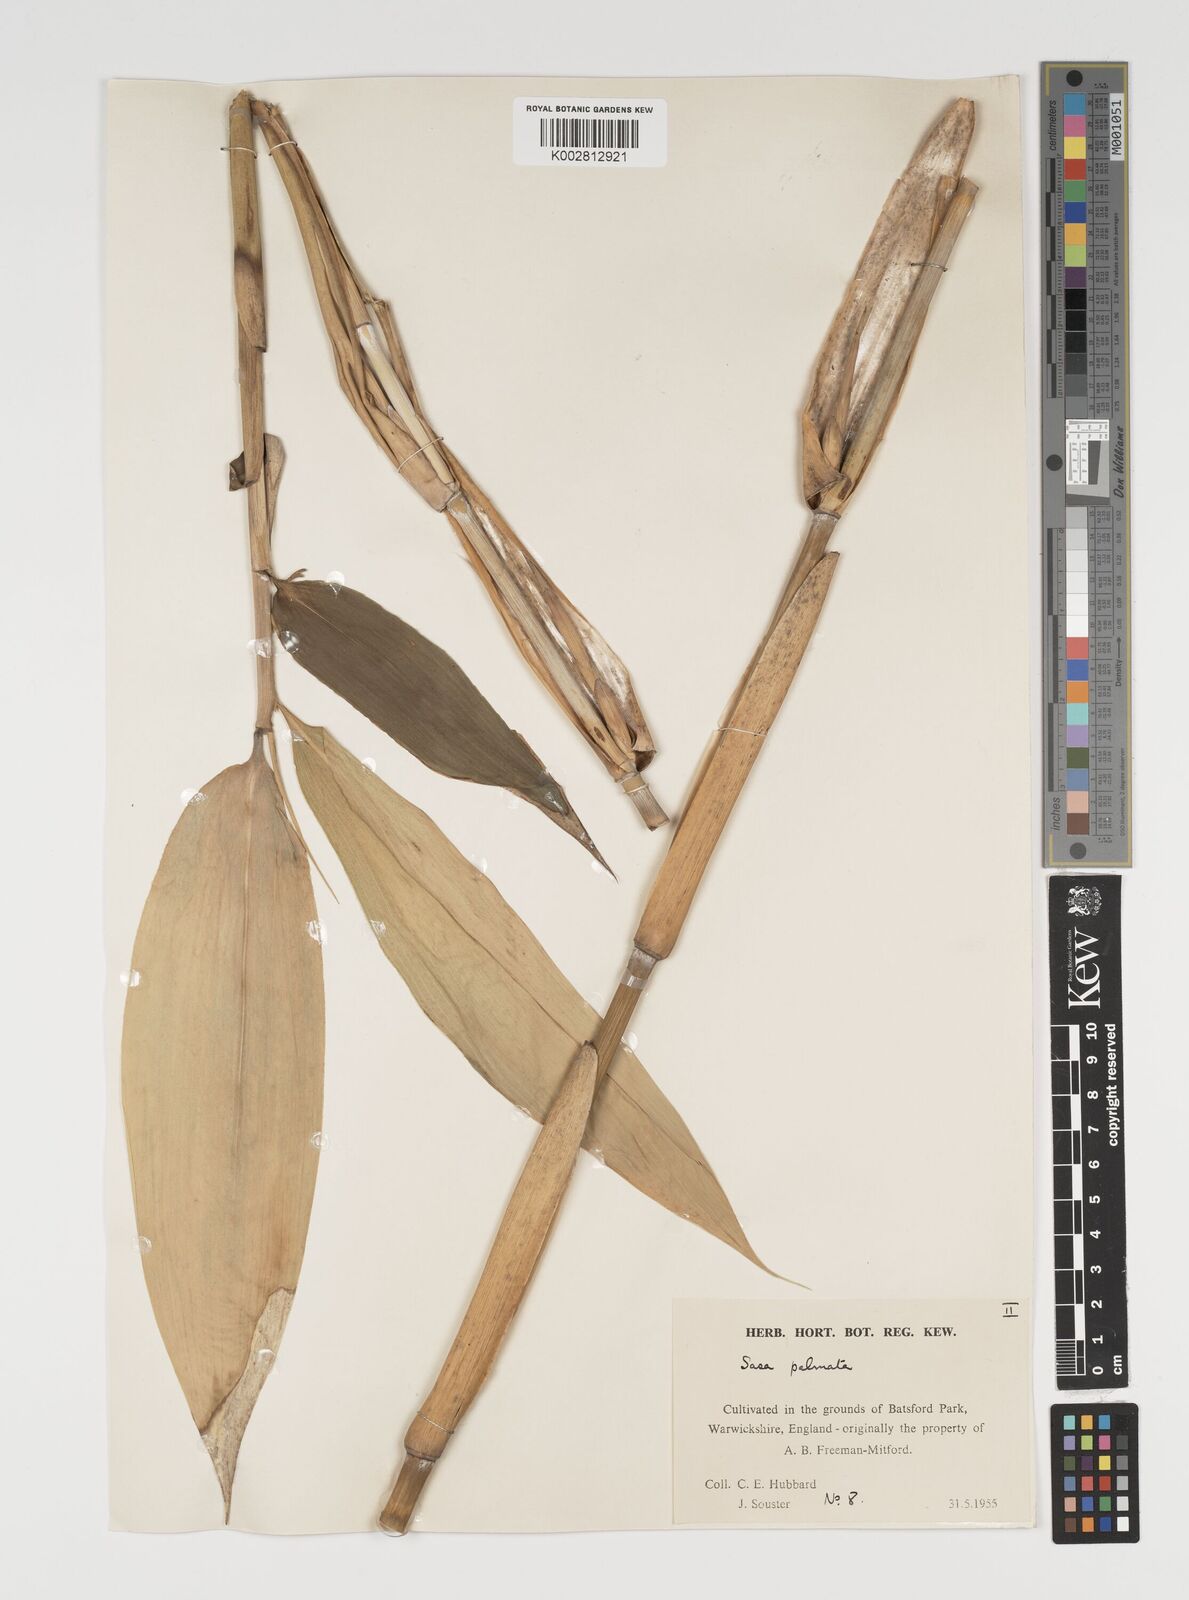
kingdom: Plantae
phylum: Tracheophyta
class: Liliopsida
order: Poales
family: Poaceae
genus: Sasa
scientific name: Sasa palmata
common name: Broad-leaved bamboo
